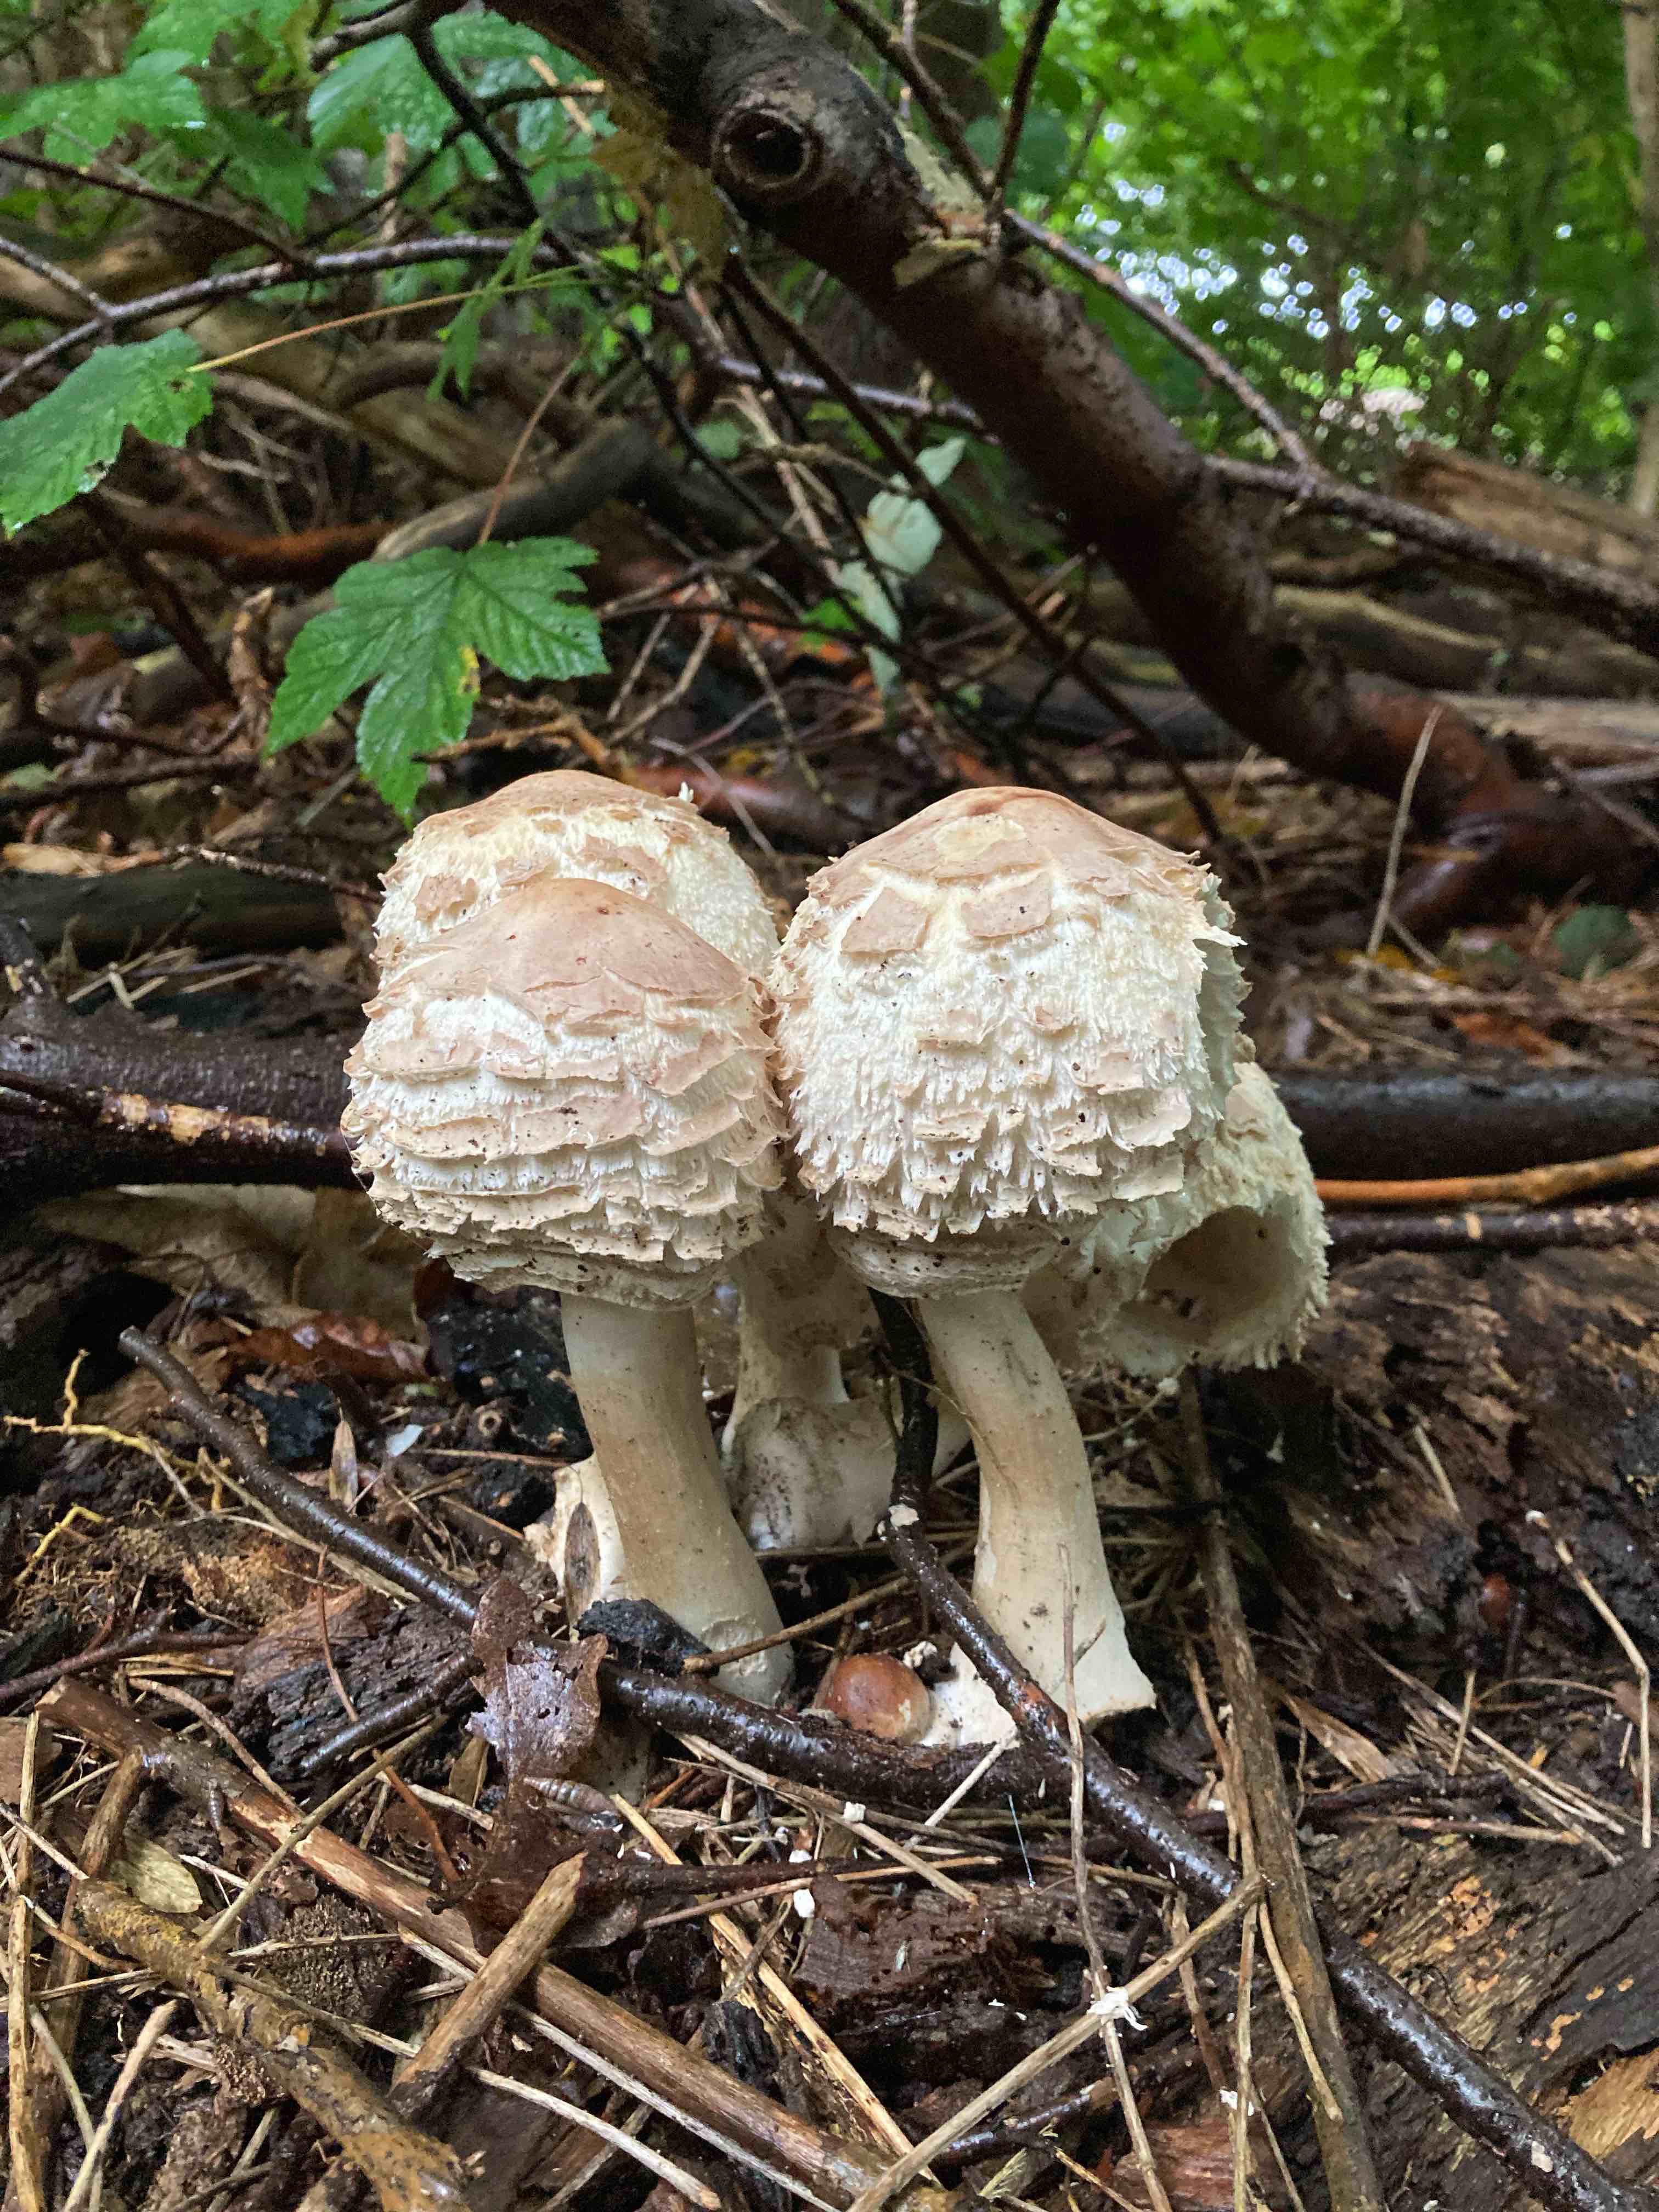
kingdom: Fungi
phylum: Basidiomycota
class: Agaricomycetes
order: Agaricales
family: Agaricaceae
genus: Chlorophyllum
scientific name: Chlorophyllum rhacodes
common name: ægte rabarberhat
